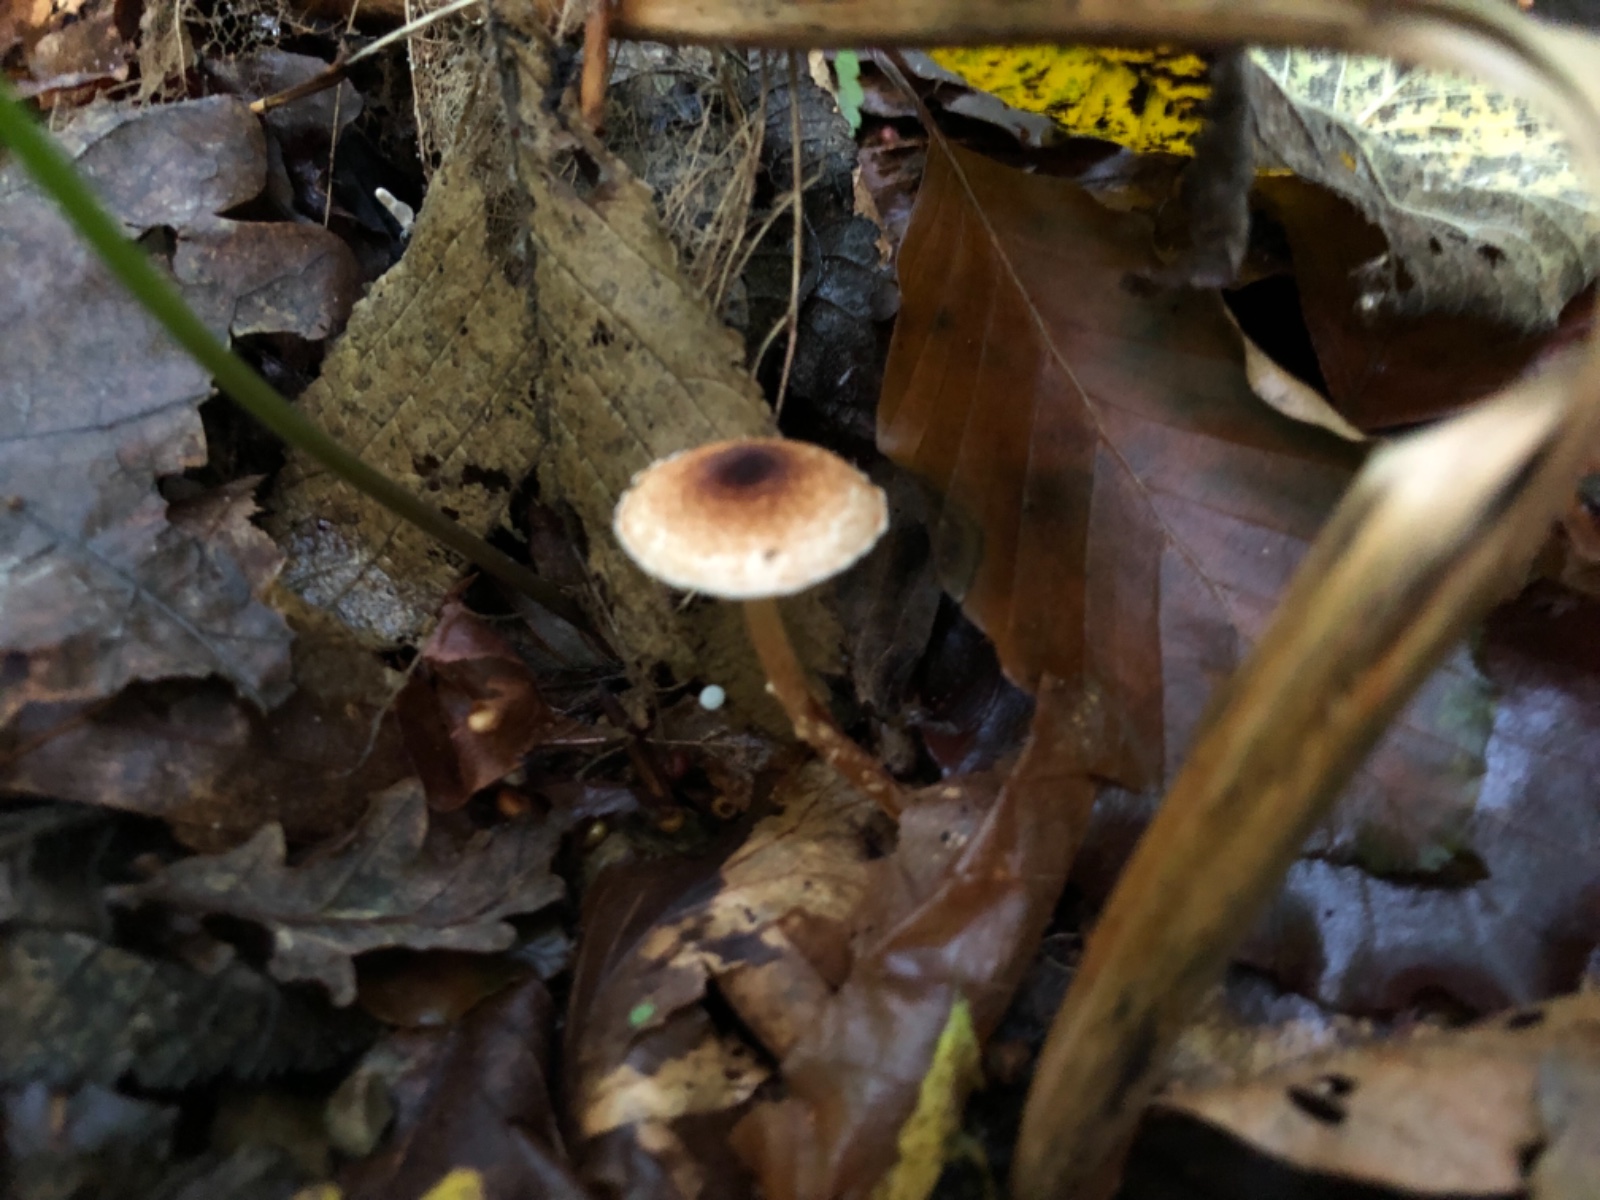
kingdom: Fungi
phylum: Basidiomycota
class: Agaricomycetes
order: Agaricales
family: Agaricaceae
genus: Lepiota
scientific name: Lepiota castanea
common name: kastaniebrun parasolhat
